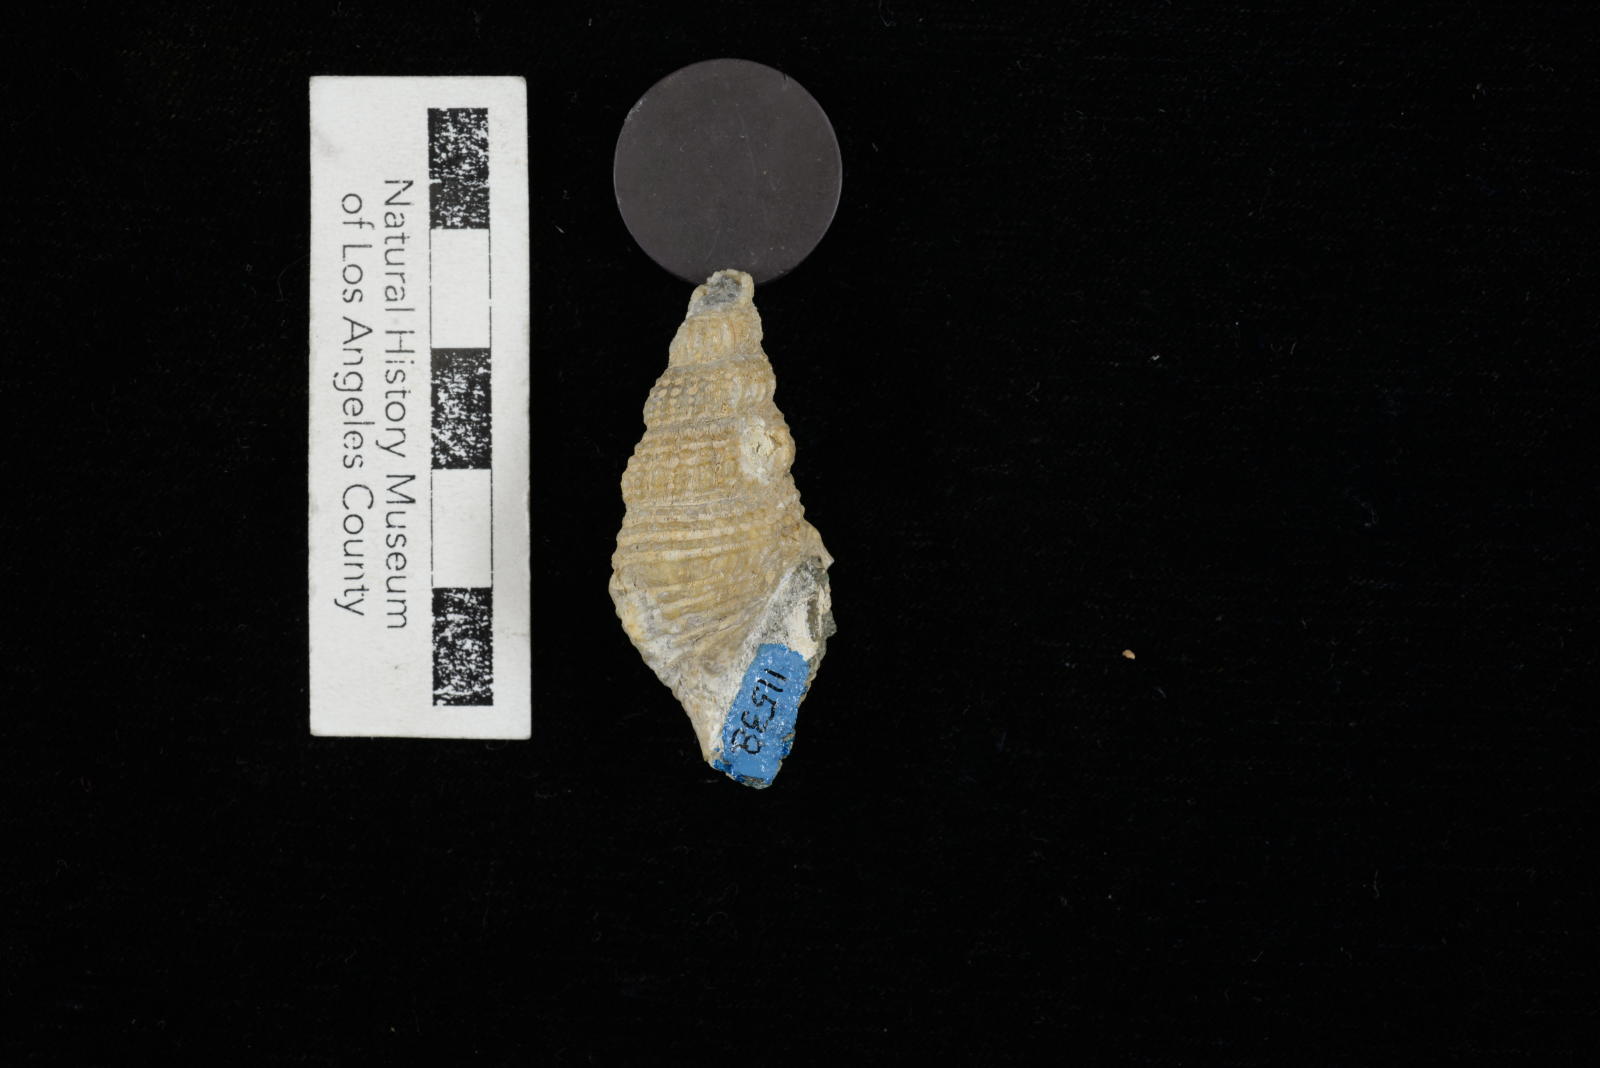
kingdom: Animalia
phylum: Mollusca
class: Gastropoda
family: Procerithiidae
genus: Procerithium
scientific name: Procerithium Uchauxia beali
